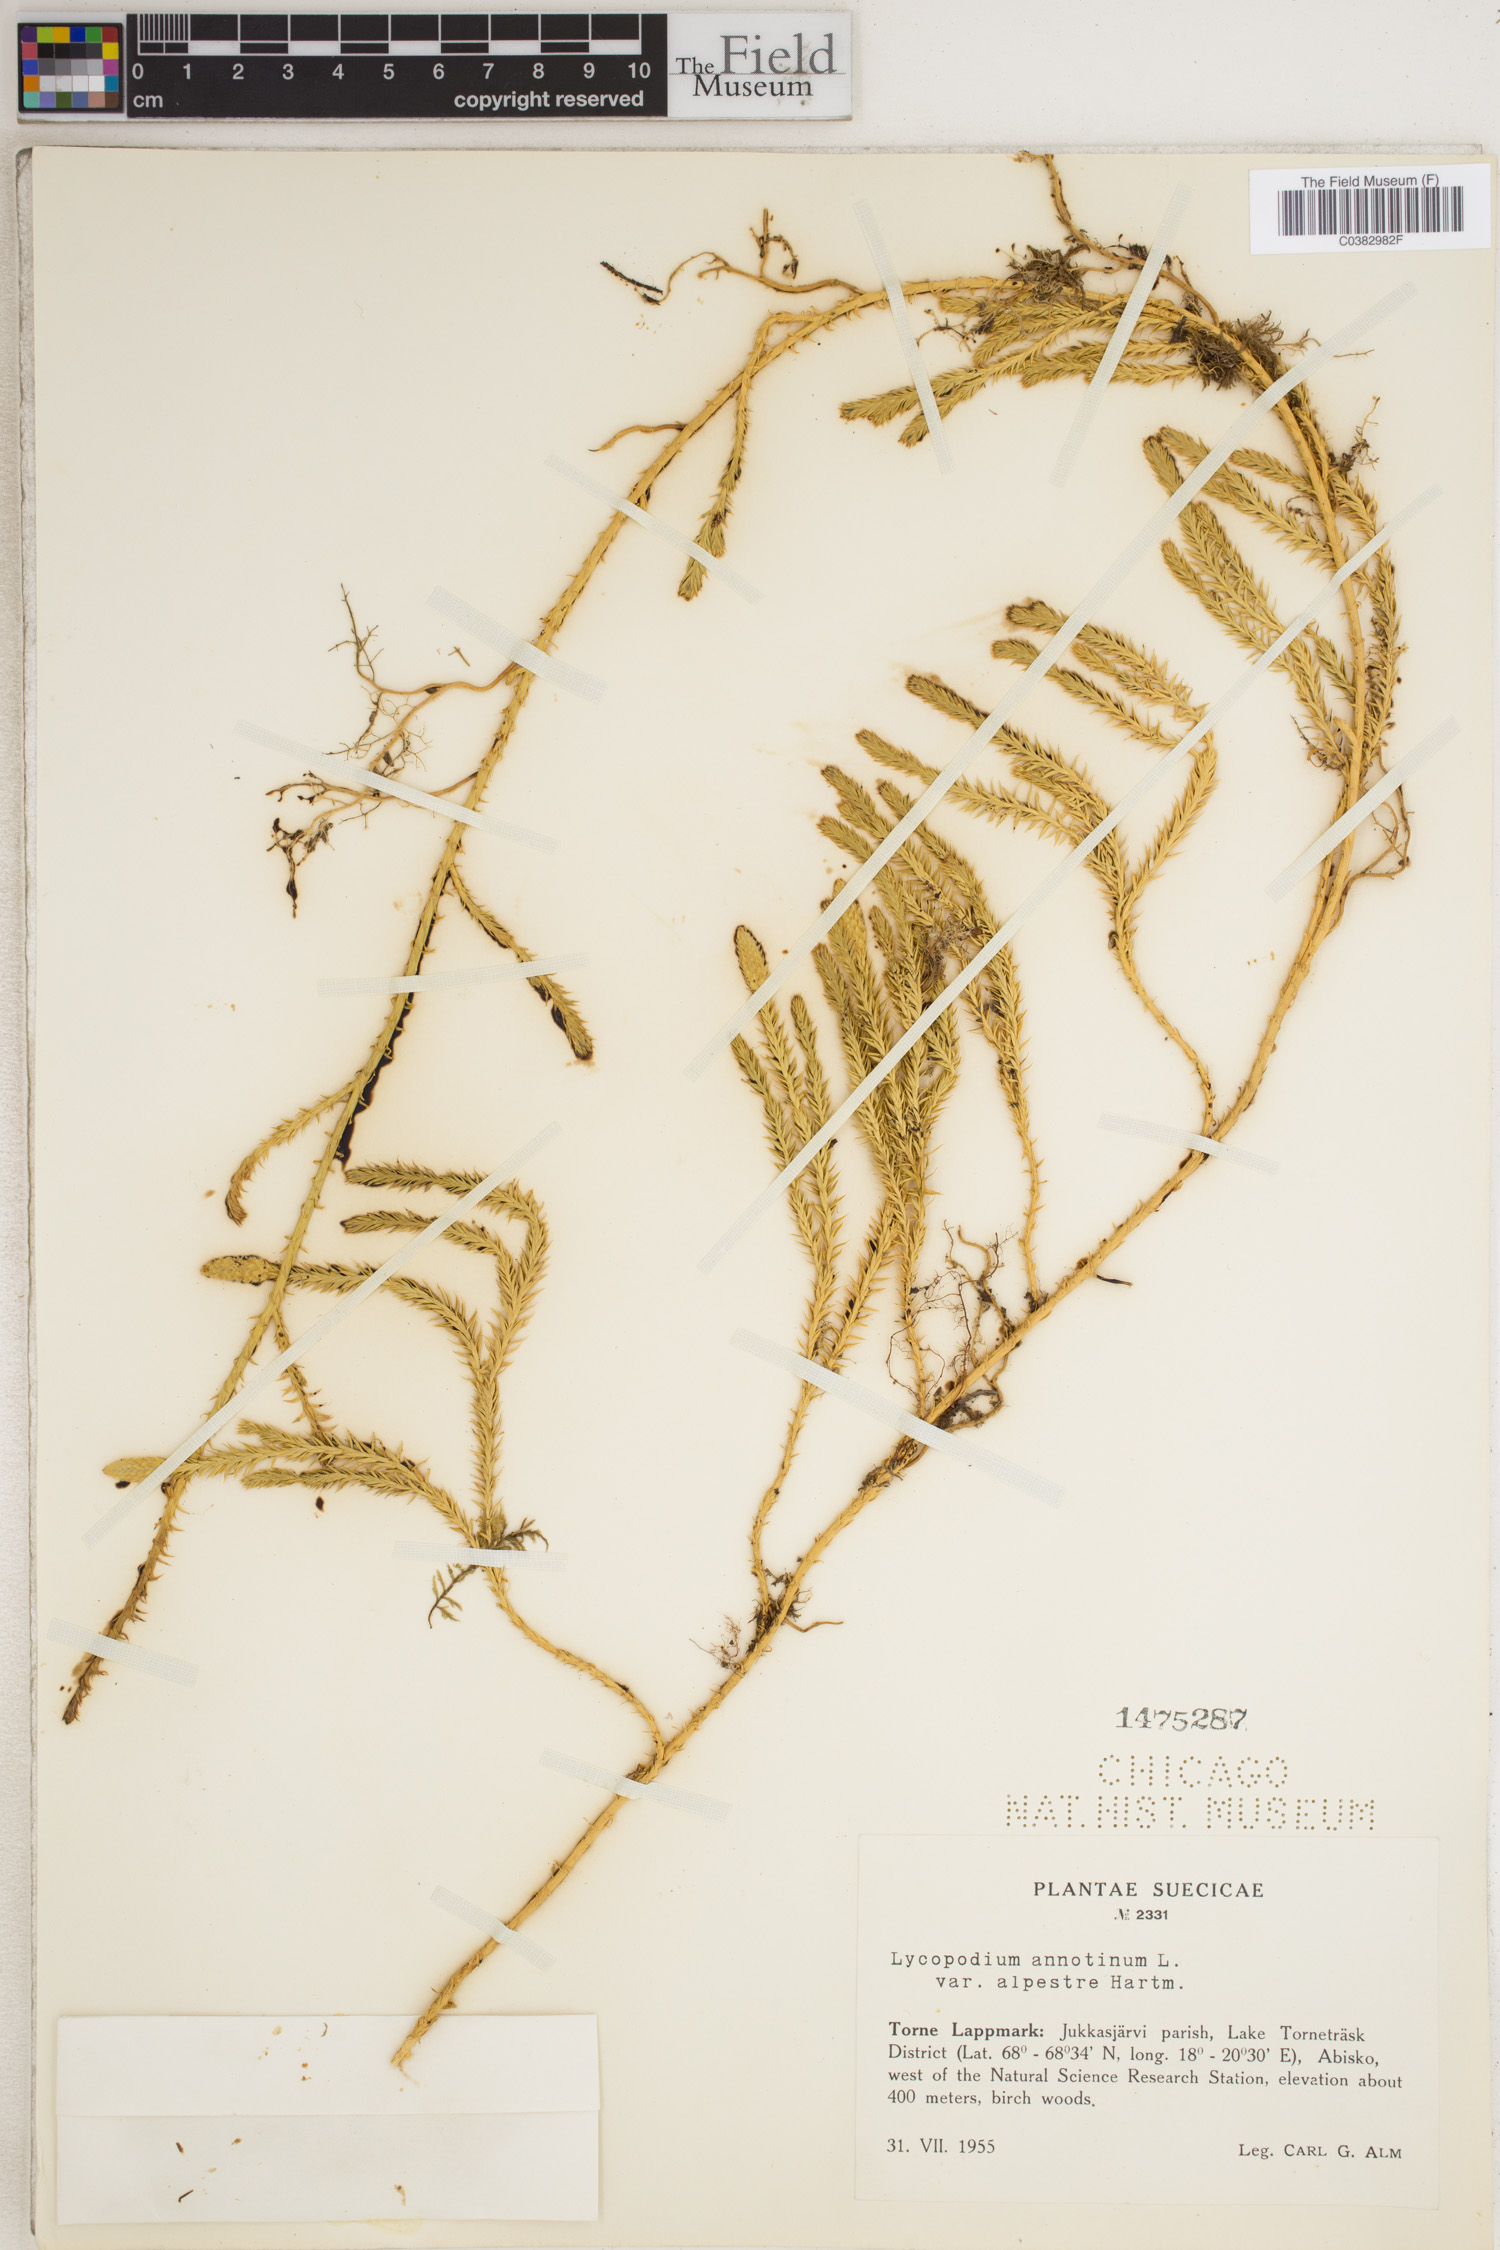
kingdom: Plantae
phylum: Tracheophyta
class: Lycopodiopsida
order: Lycopodiales
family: Lycopodiaceae
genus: Spinulum
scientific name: Spinulum annotinum
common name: Interrupted club-moss
